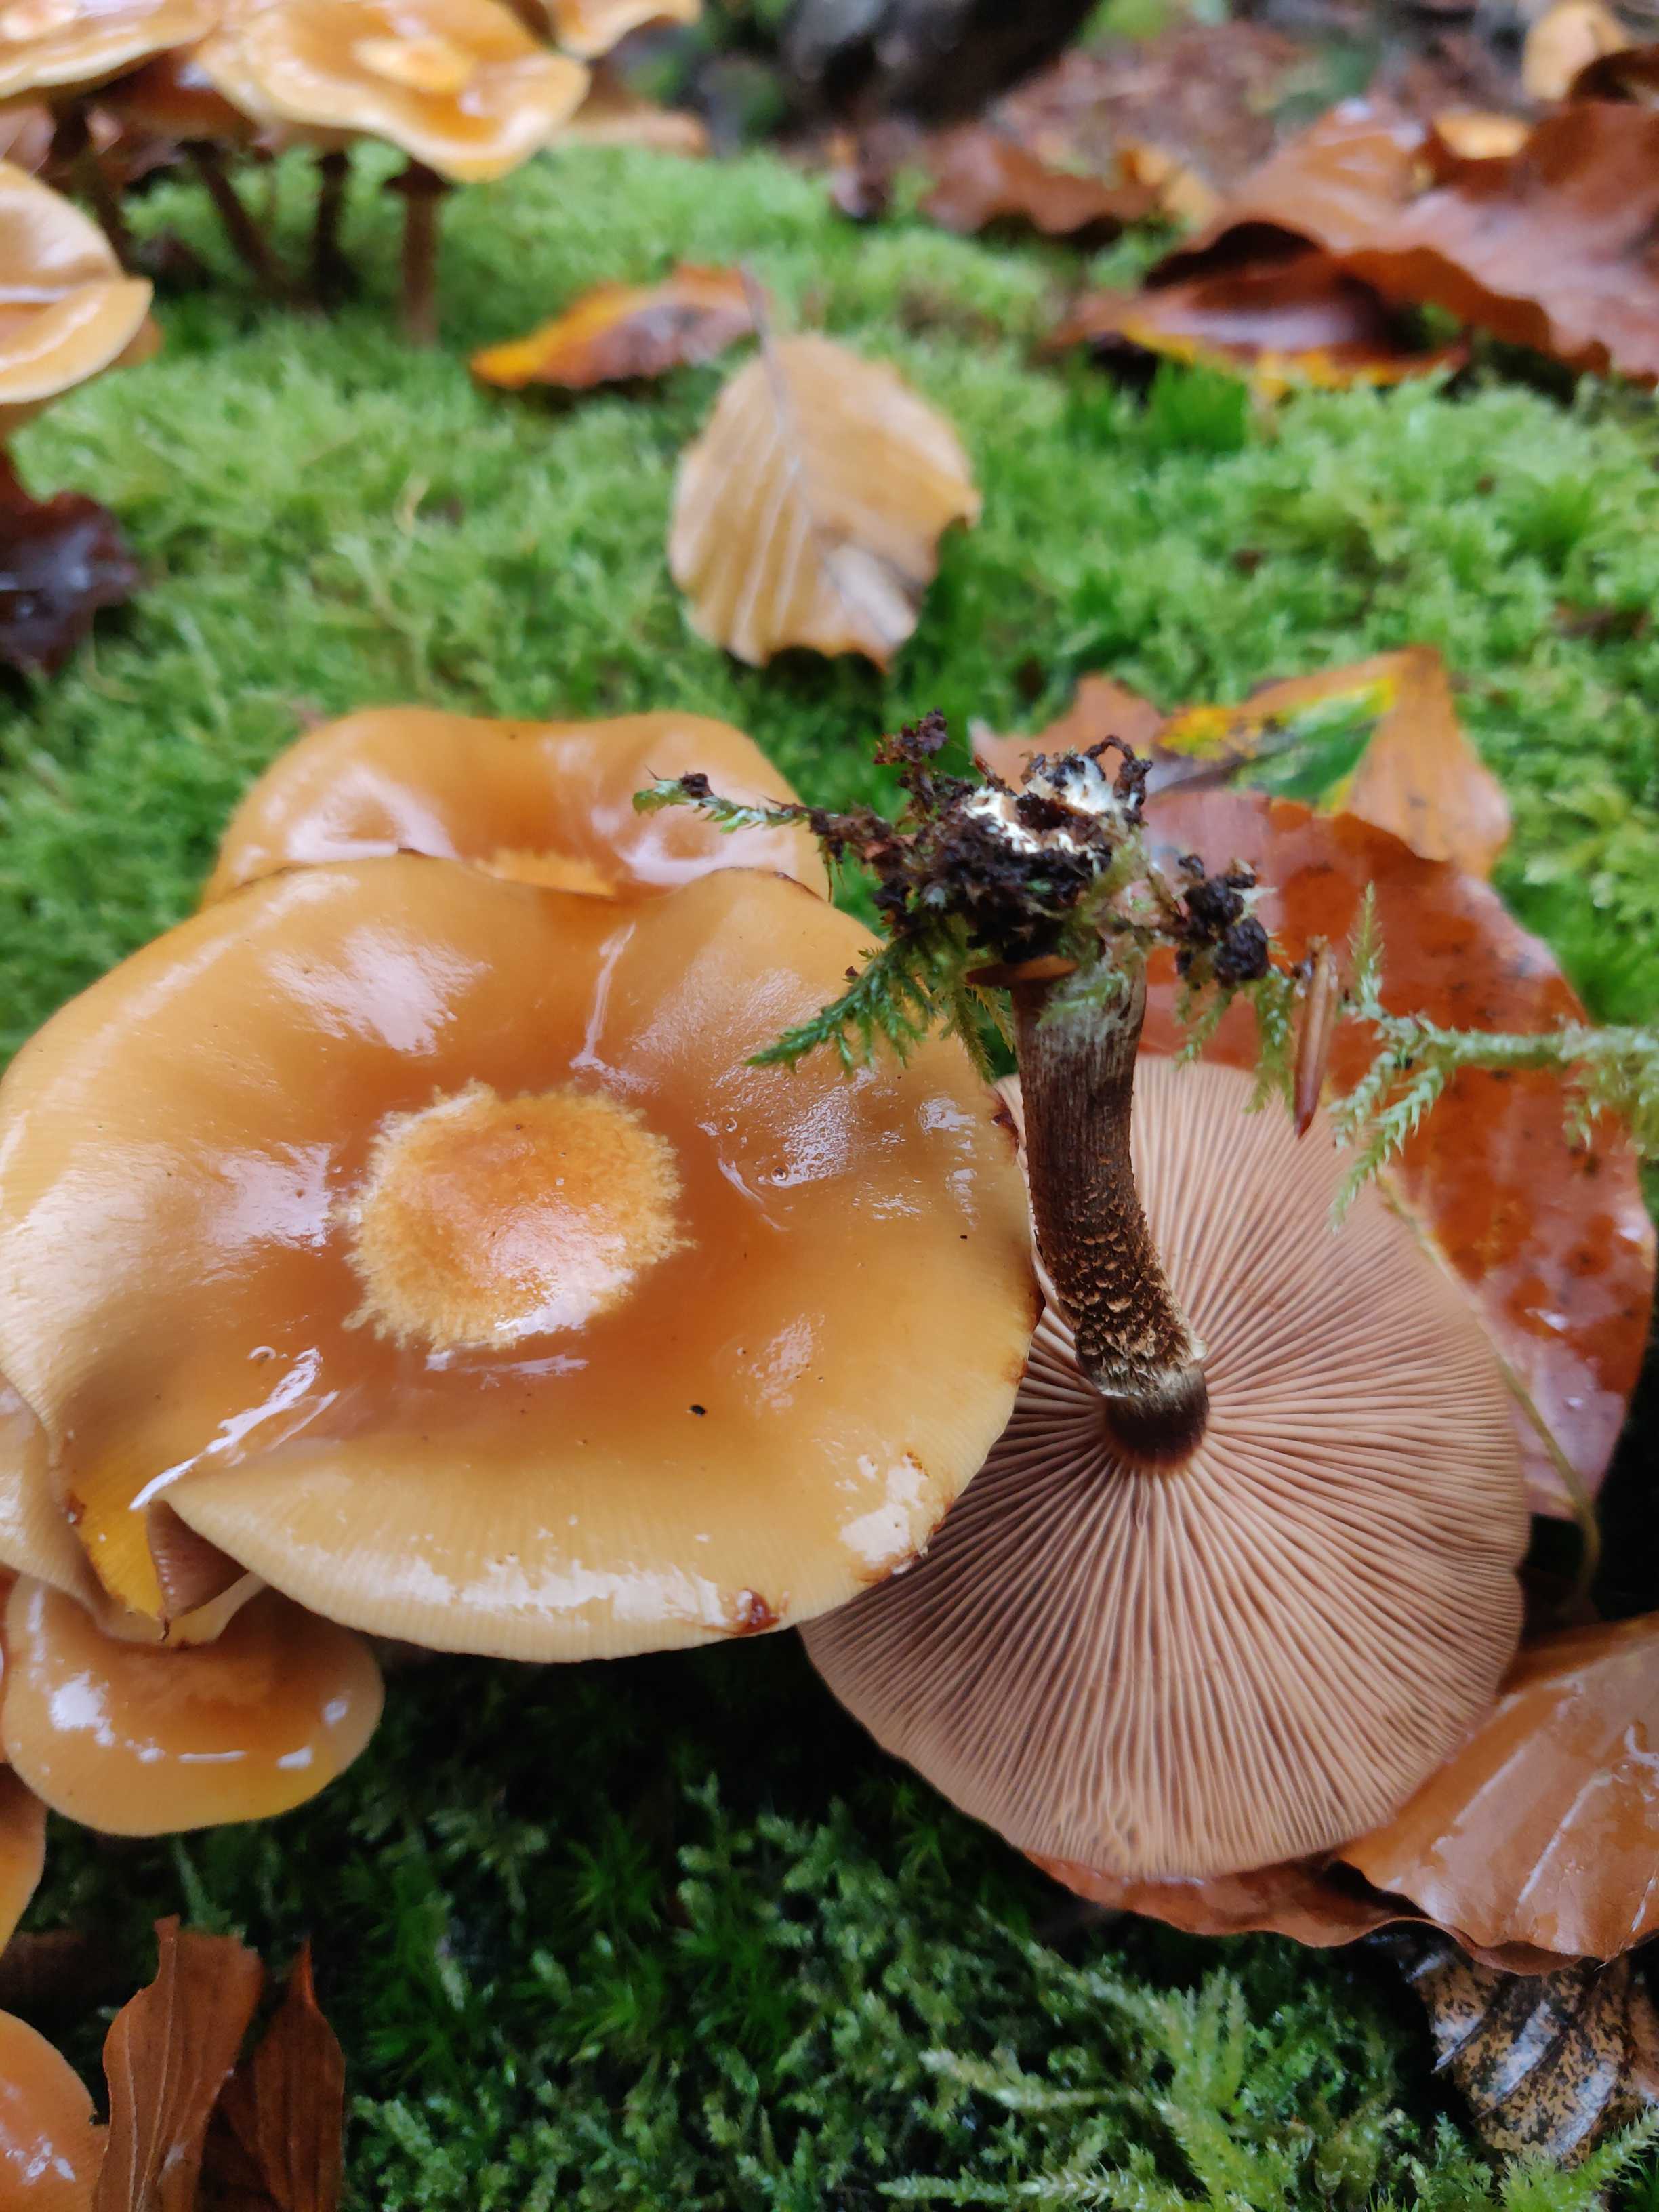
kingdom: Fungi
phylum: Basidiomycota
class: Agaricomycetes
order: Agaricales
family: Strophariaceae
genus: Kuehneromyces
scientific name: Kuehneromyces mutabilis
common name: foranderlig skælhat
